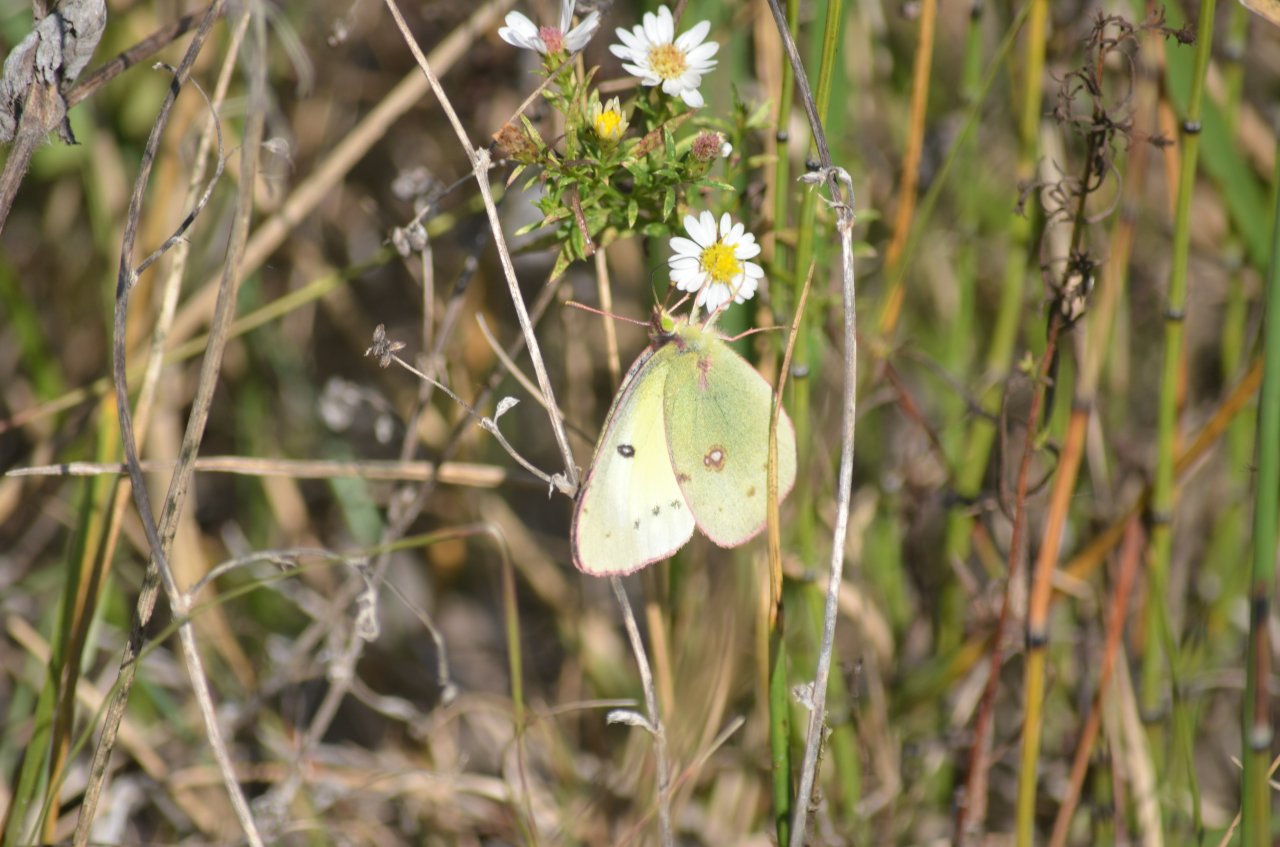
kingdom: Animalia
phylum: Arthropoda
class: Insecta
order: Lepidoptera
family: Pieridae
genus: Colias
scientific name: Colias philodice
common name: Clouded Sulphur
